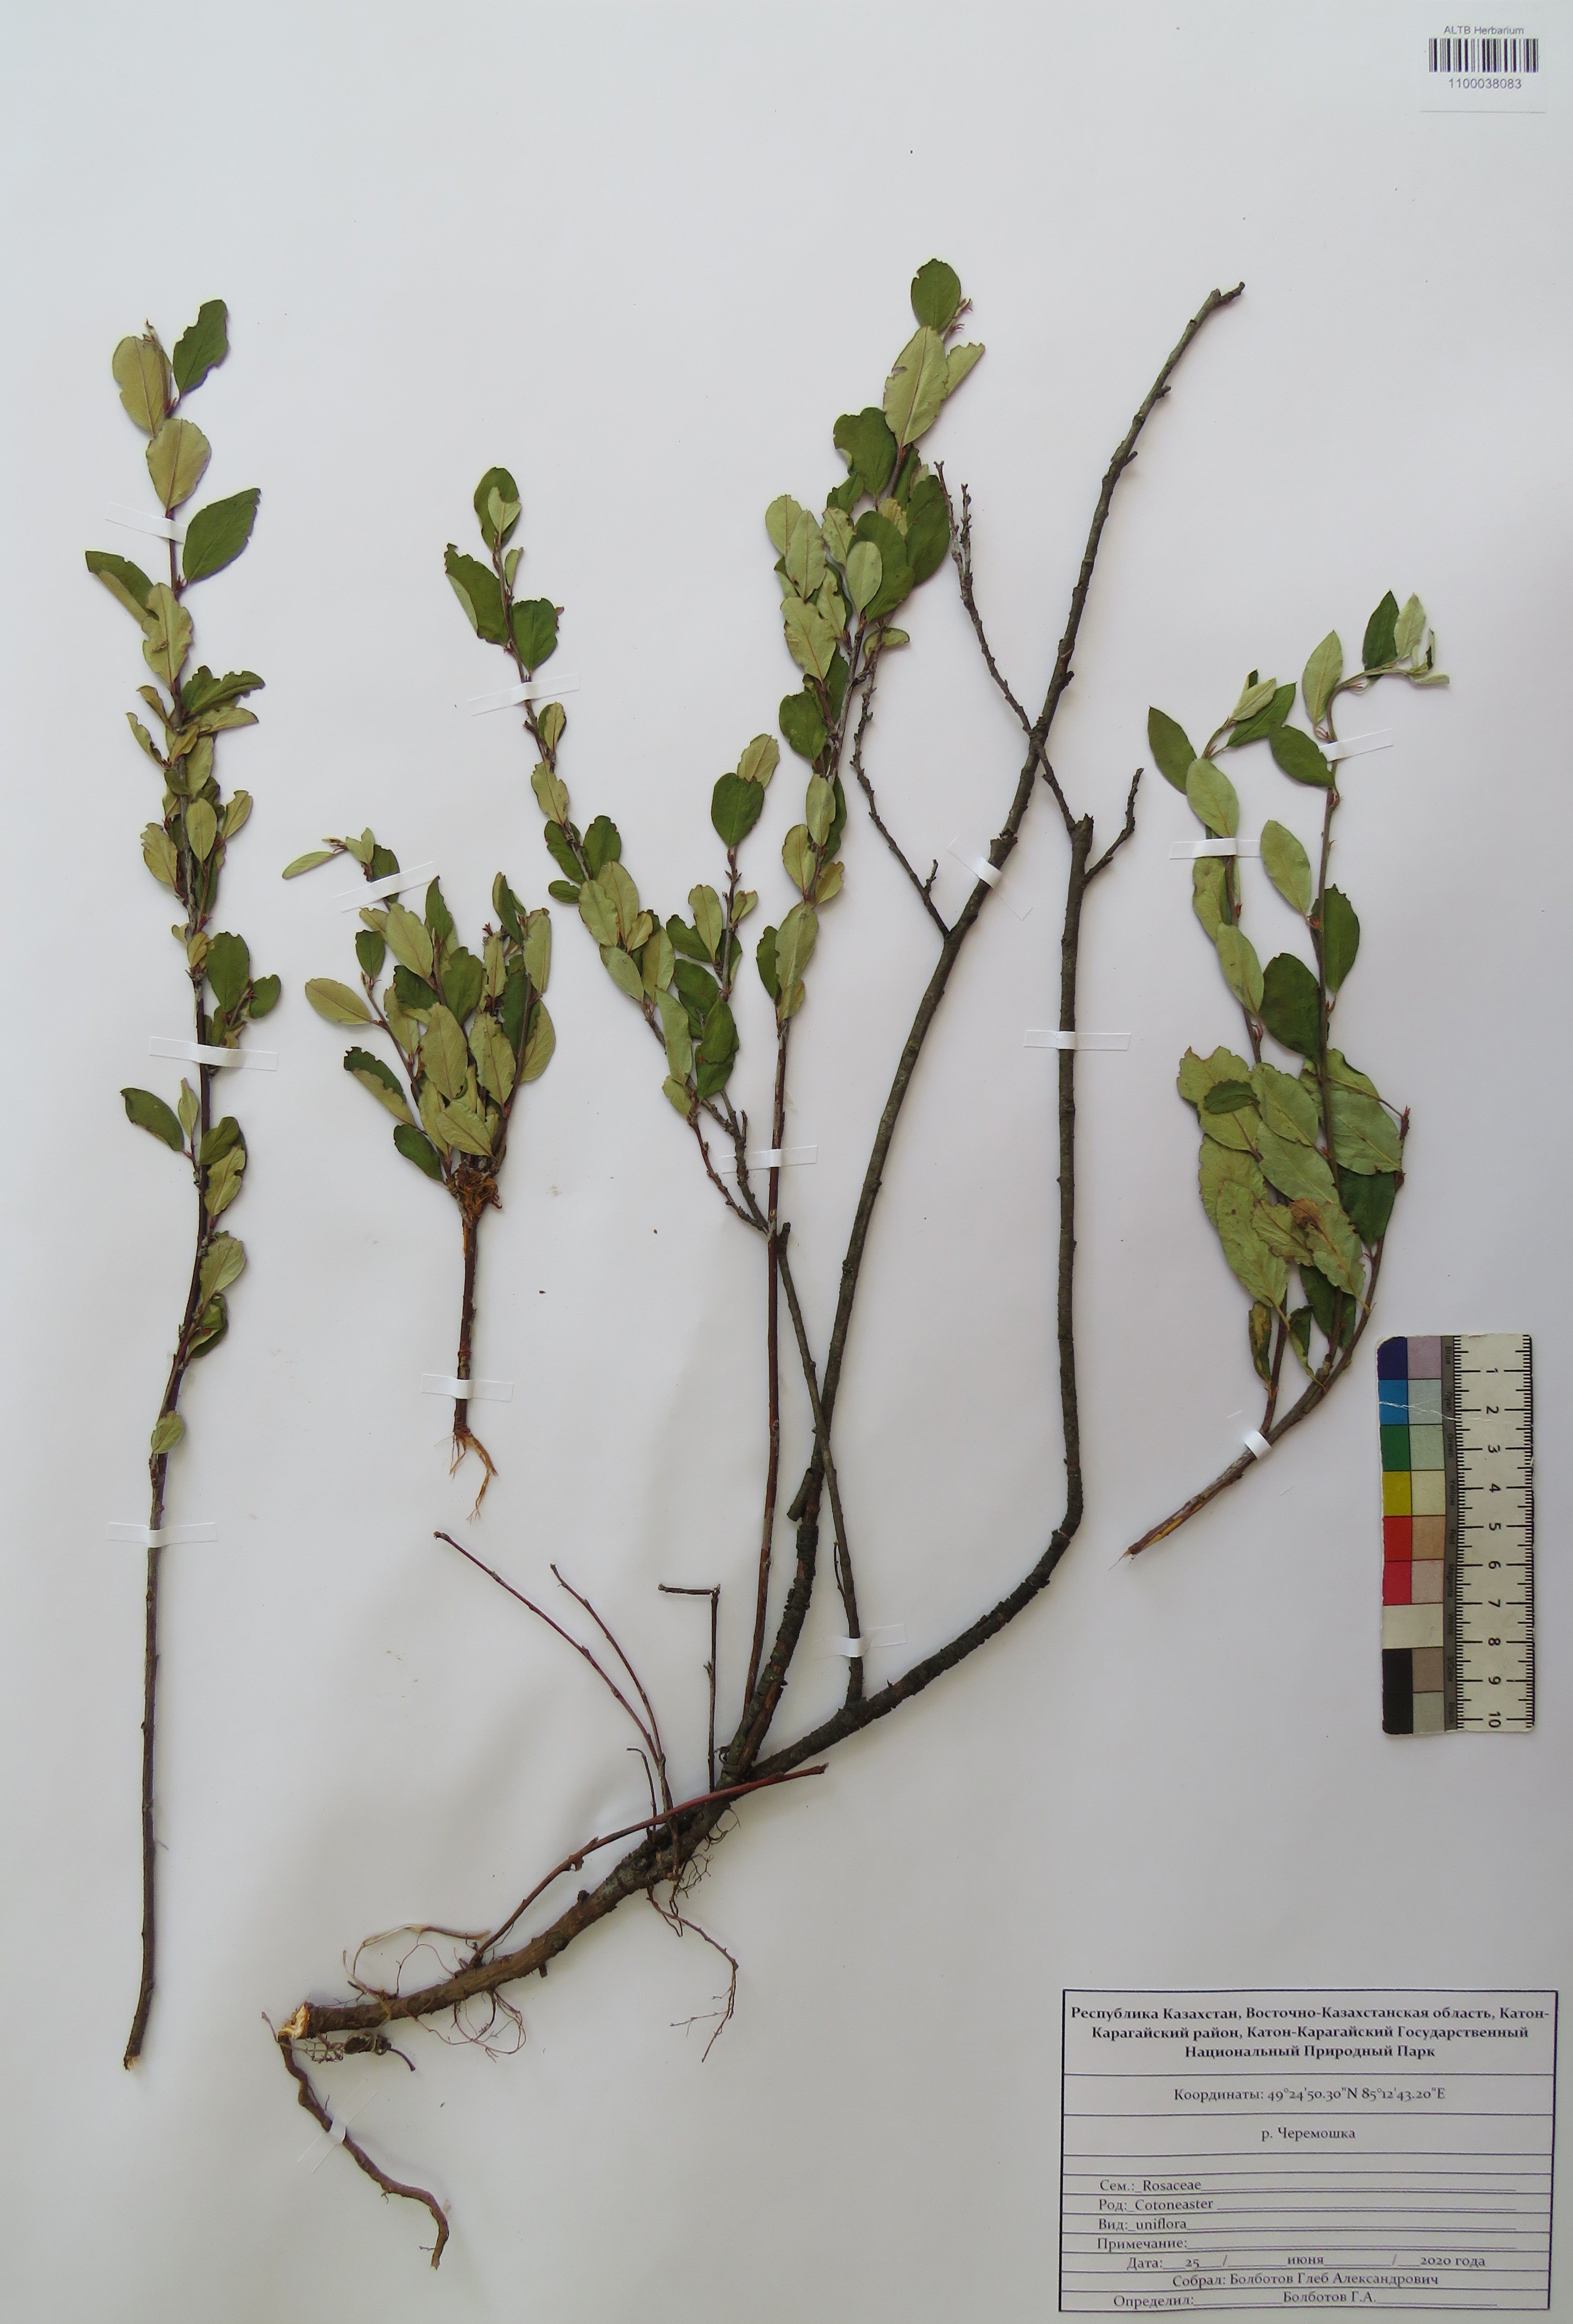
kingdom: Plantae
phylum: Tracheophyta
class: Magnoliopsida
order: Rosales
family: Rosaceae
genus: Cotoneaster
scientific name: Cotoneaster uniflorus
